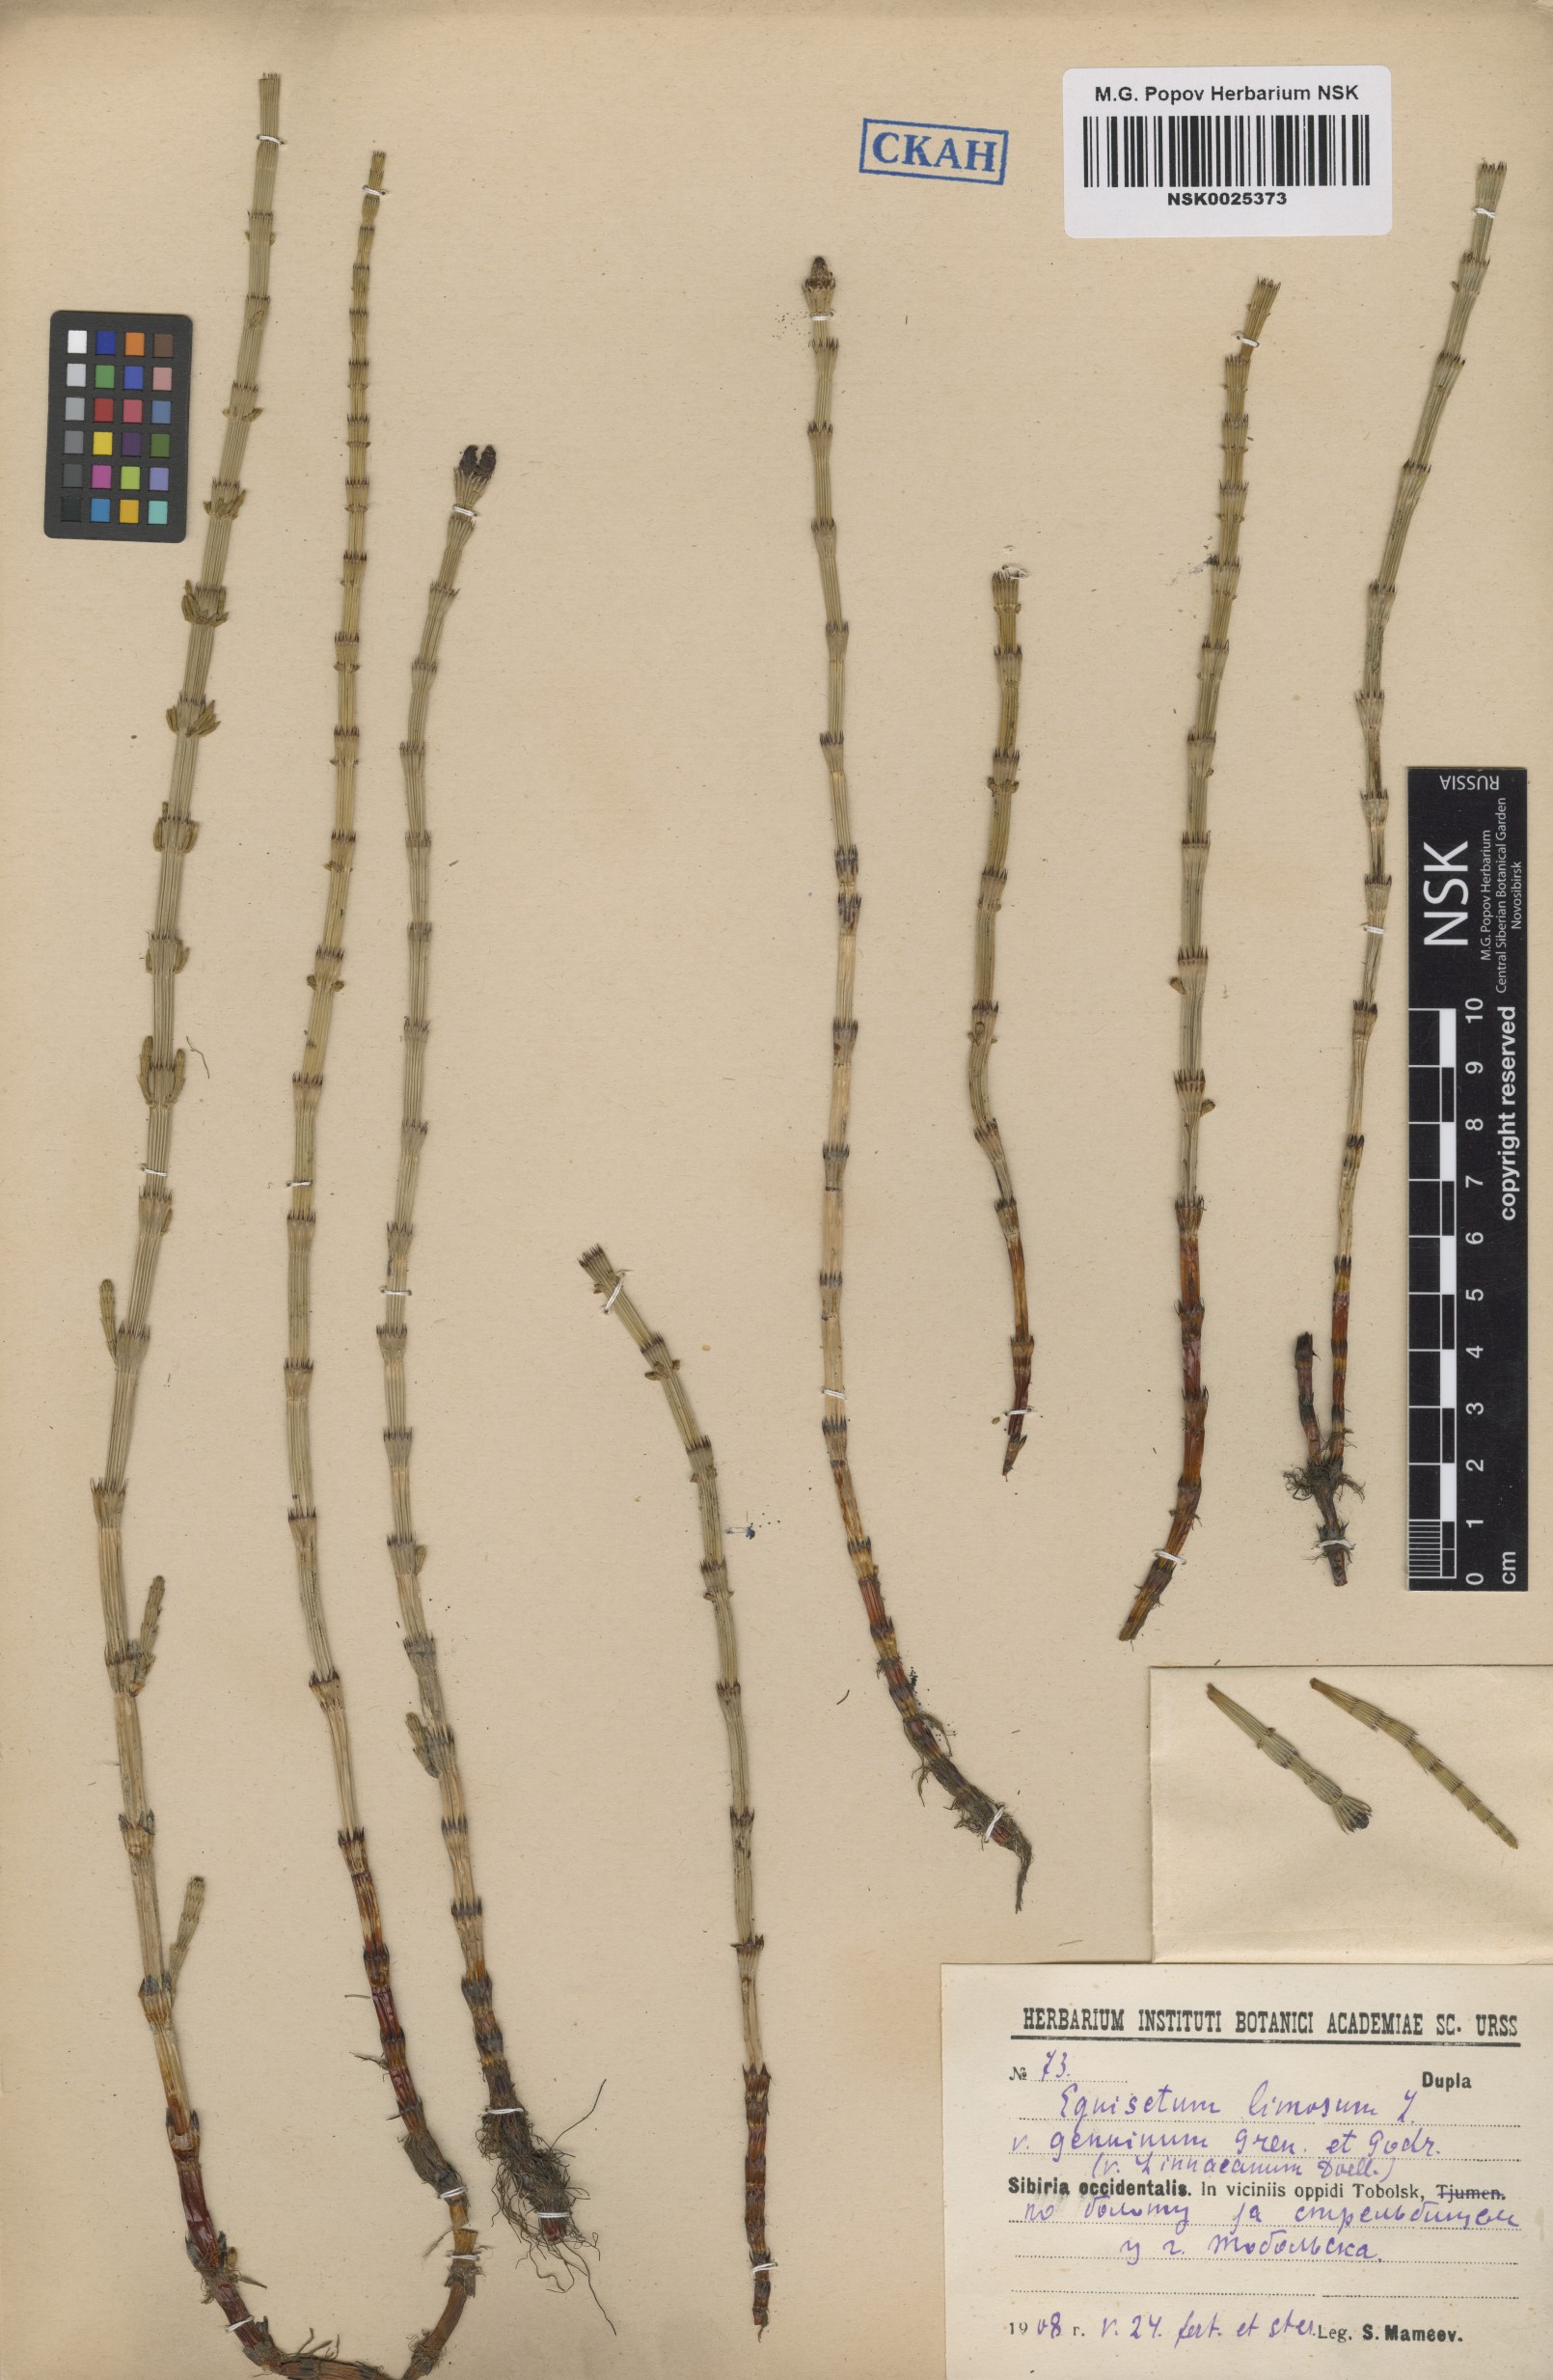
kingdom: Plantae
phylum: Tracheophyta
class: Polypodiopsida
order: Equisetales
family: Equisetaceae
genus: Equisetum
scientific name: Equisetum fluviatile
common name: Water horsetail
